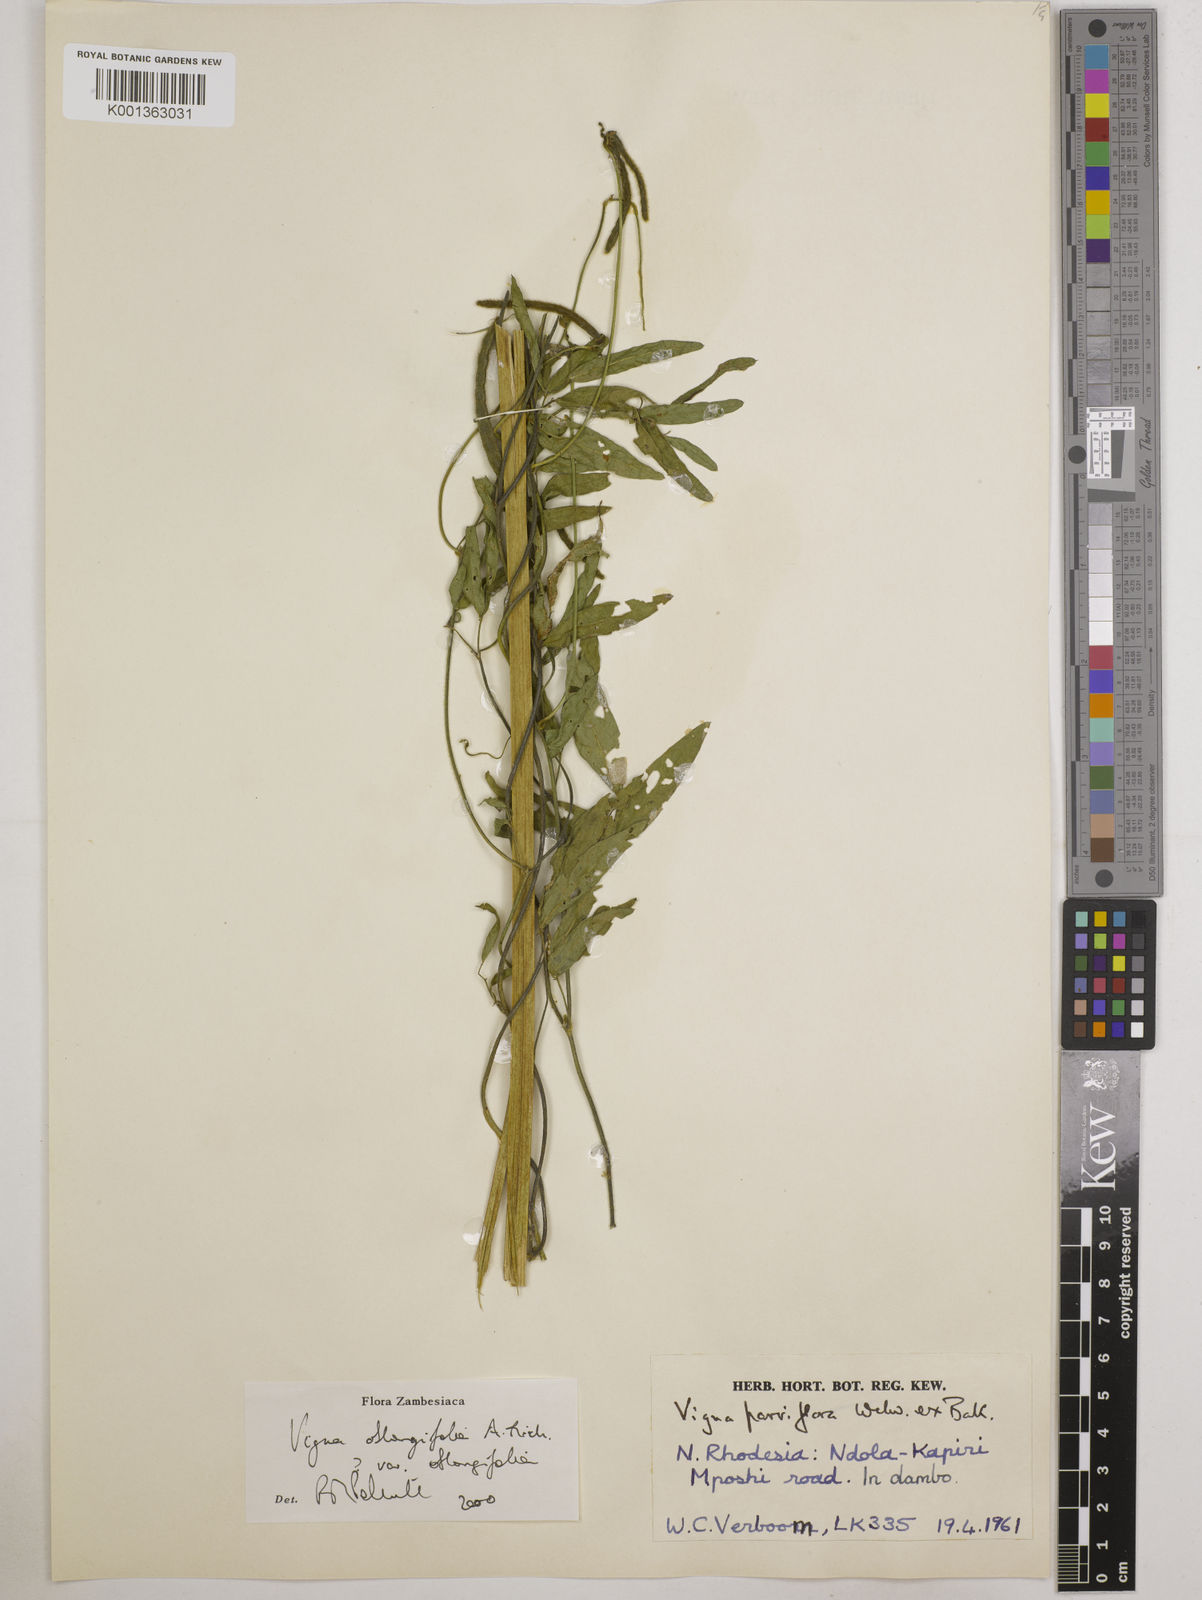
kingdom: Plantae
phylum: Tracheophyta
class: Magnoliopsida
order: Fabales
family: Fabaceae
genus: Vigna
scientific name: Vigna oblongifolia
